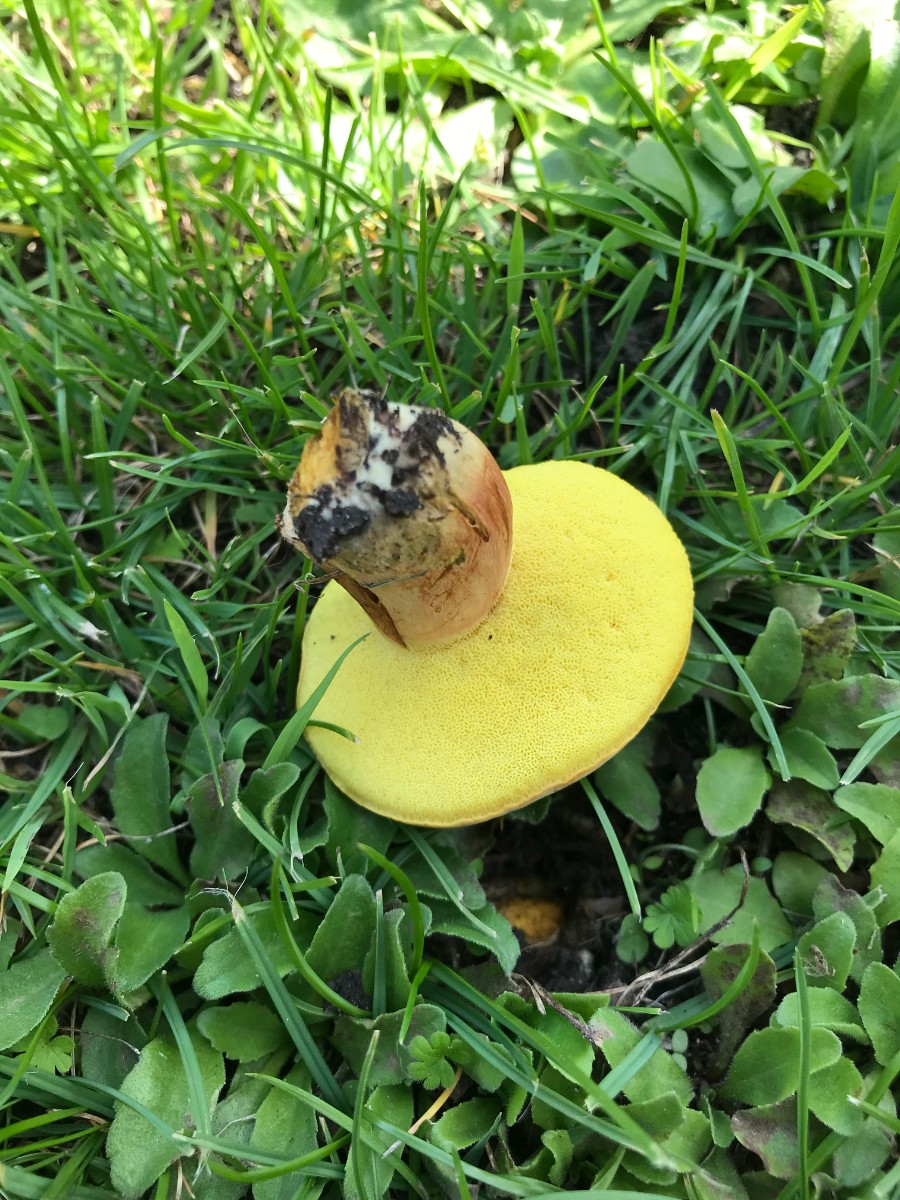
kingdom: Fungi
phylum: Basidiomycota
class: Agaricomycetes
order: Boletales
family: Boletaceae
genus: Hortiboletus
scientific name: Hortiboletus bubalinus
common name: aurora-rørhat
